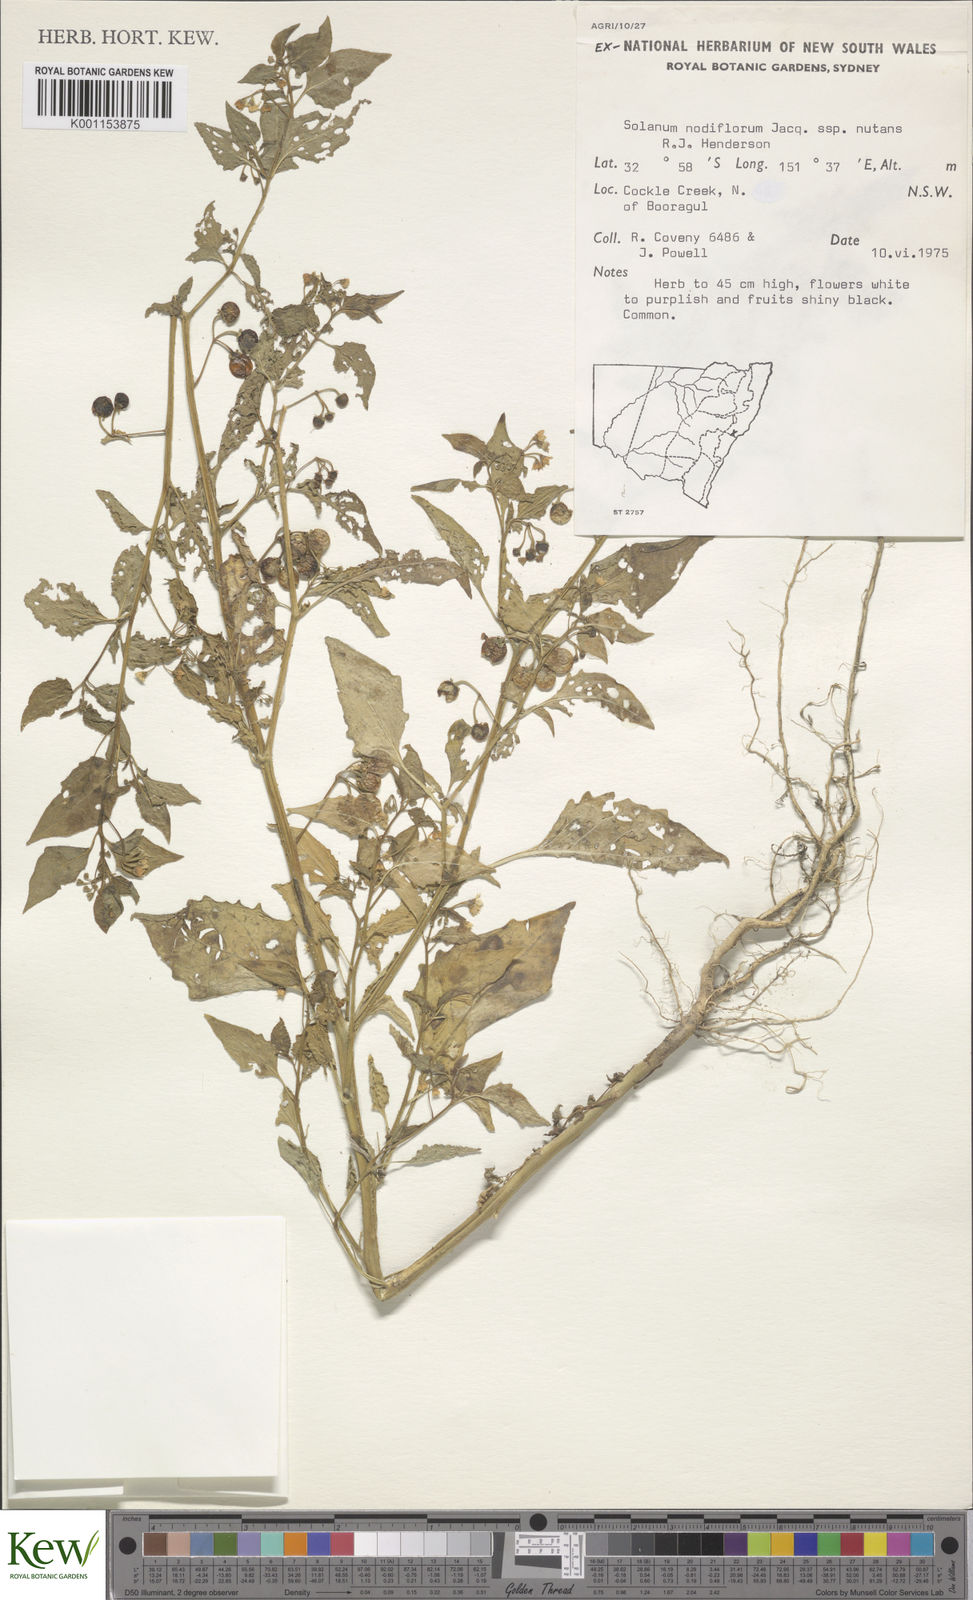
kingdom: Plantae
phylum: Tracheophyta
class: Magnoliopsida
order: Solanales
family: Solanaceae
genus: Solanum
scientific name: Solanum americanum
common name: American black nightshade
